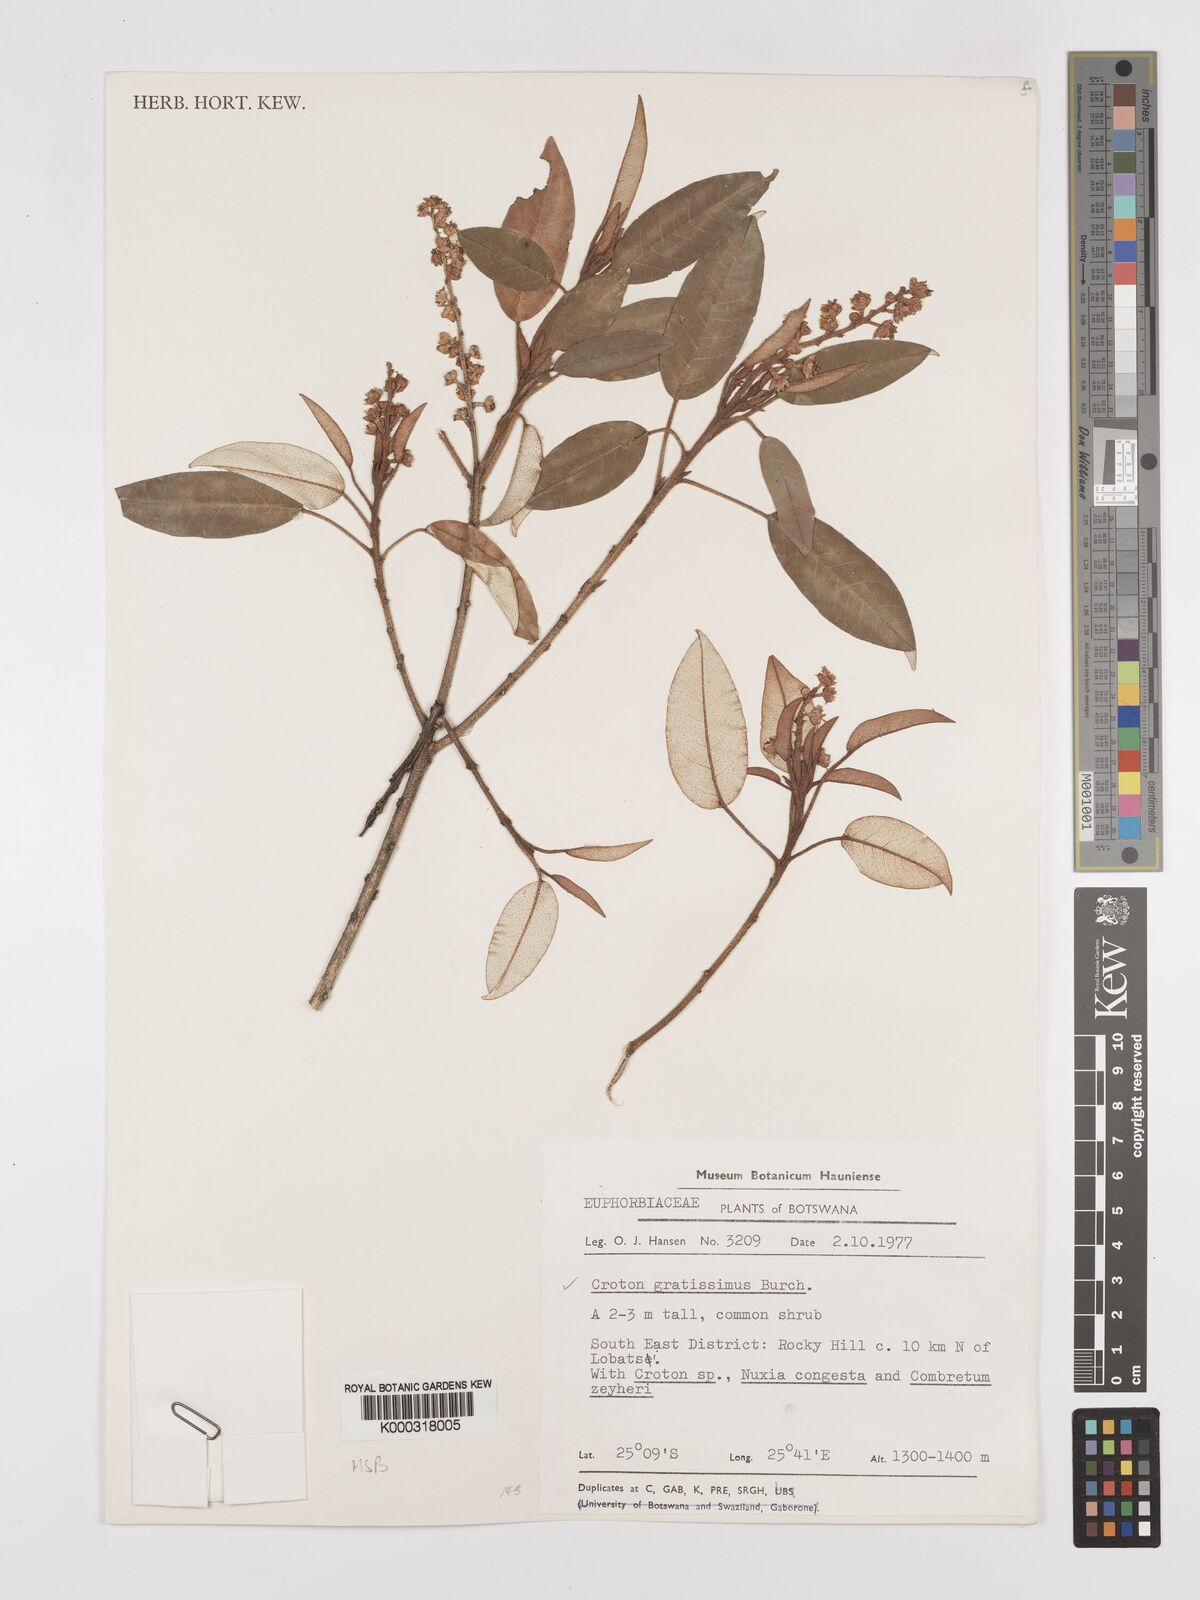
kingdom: Plantae
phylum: Tracheophyta
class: Magnoliopsida
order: Malpighiales
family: Euphorbiaceae
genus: Croton
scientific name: Croton gratissimus
